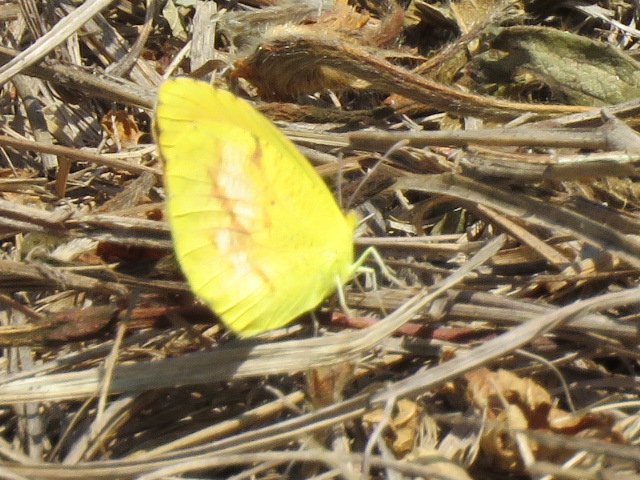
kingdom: Animalia
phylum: Arthropoda
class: Insecta
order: Lepidoptera
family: Pieridae
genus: Abaeis
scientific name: Abaeis nicippe
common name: Sleepy Orange
